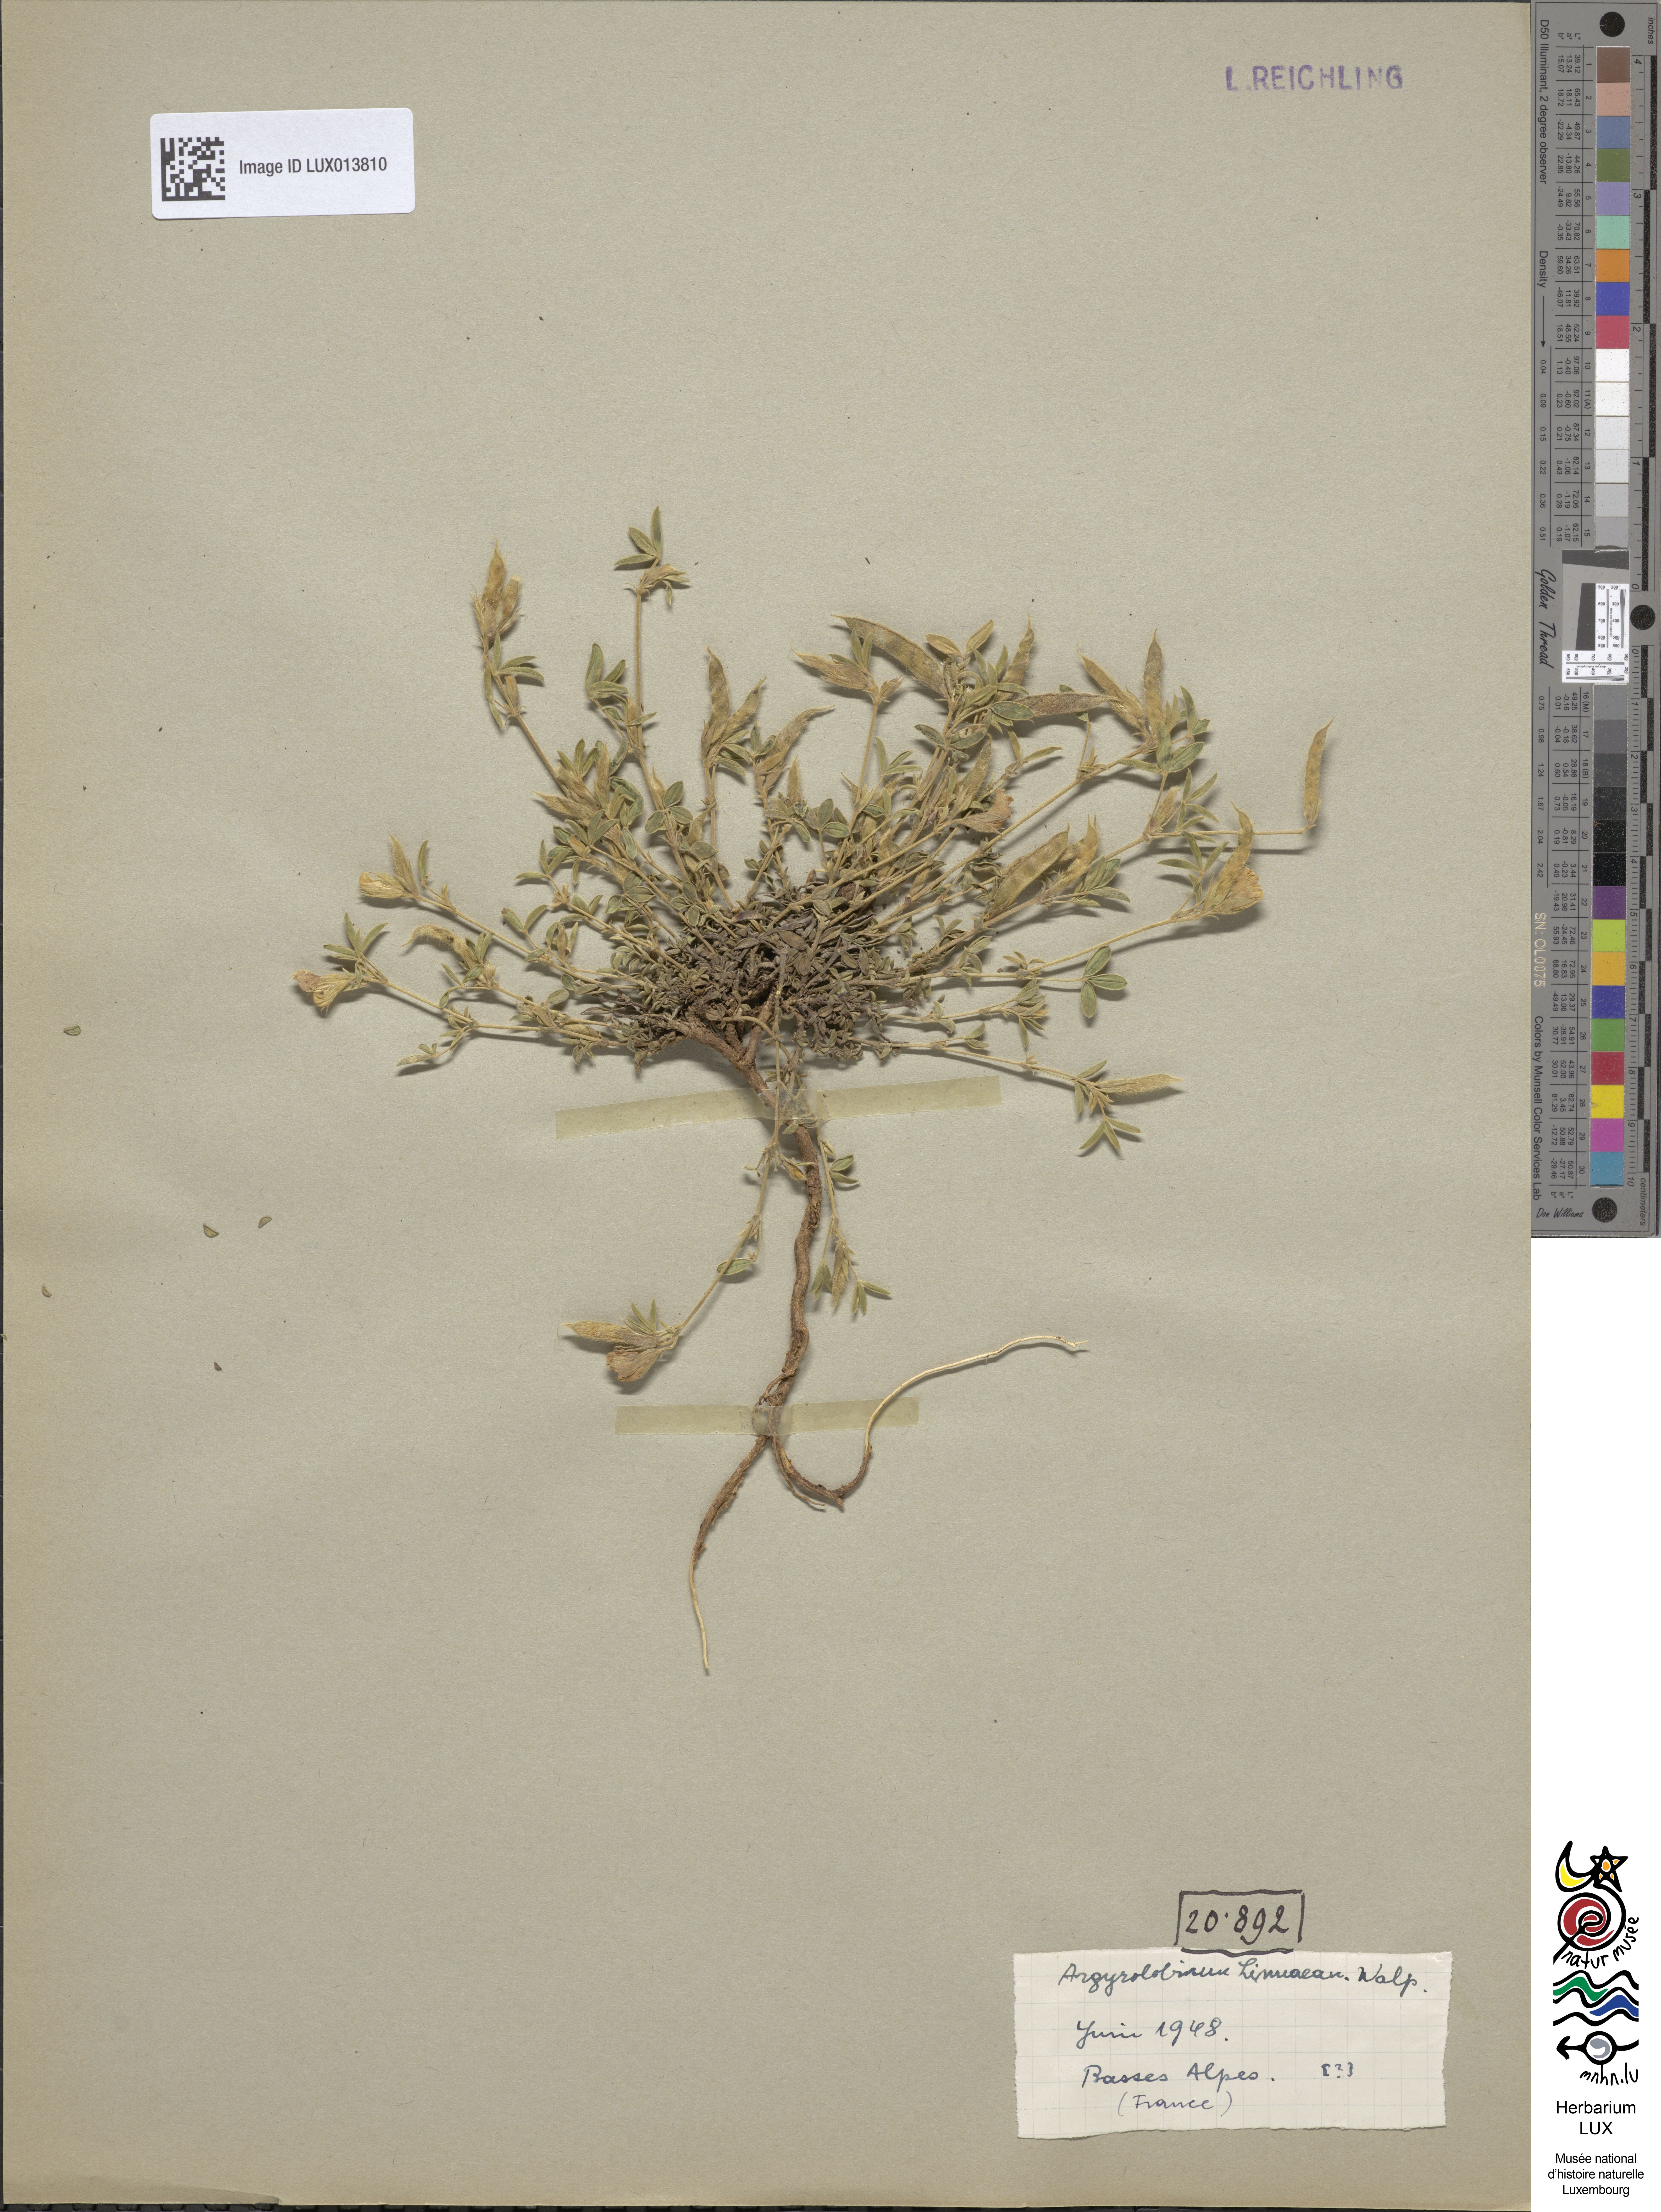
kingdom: Plantae
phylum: Tracheophyta
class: Magnoliopsida
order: Fabales
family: Fabaceae
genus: Argyrolobium
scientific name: Argyrolobium zanonii
